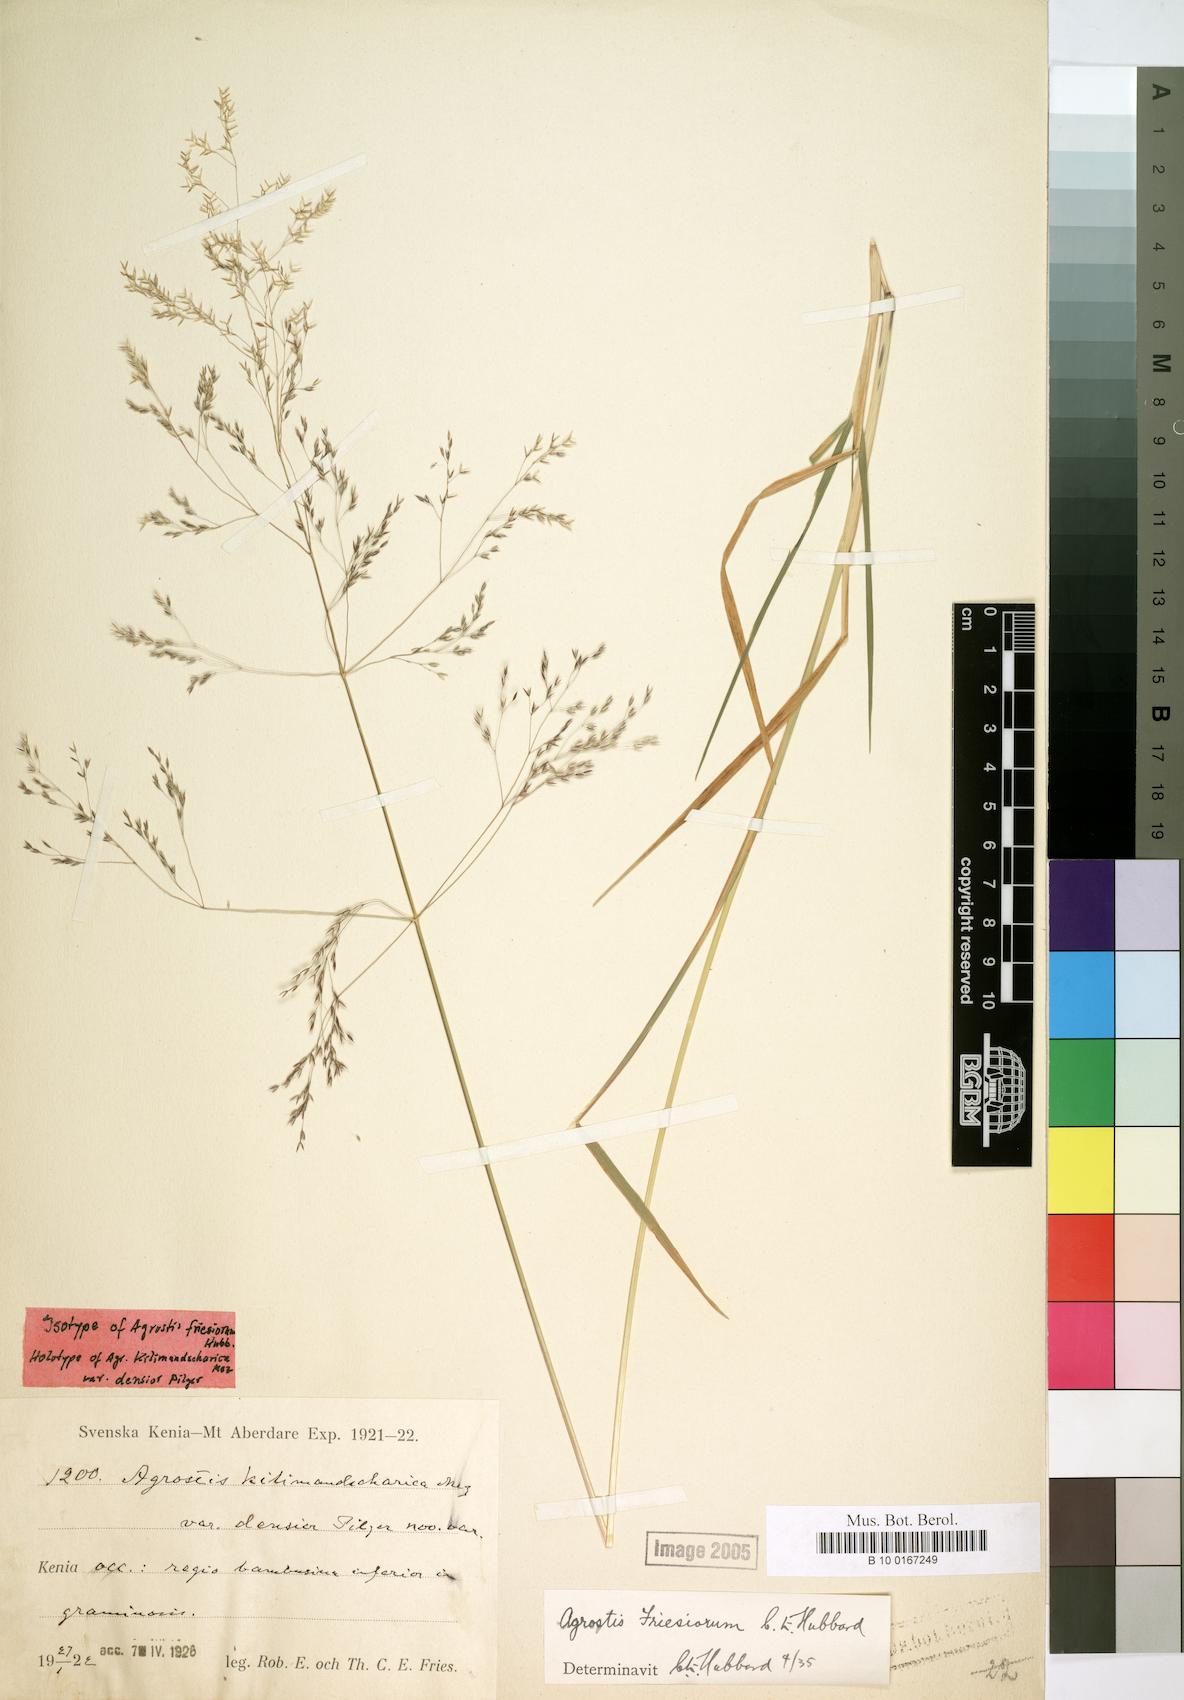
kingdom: Plantae
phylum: Tracheophyta
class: Liliopsida
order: Poales
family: Poaceae
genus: Agrostis
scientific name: Agrostis kilimandscharica
